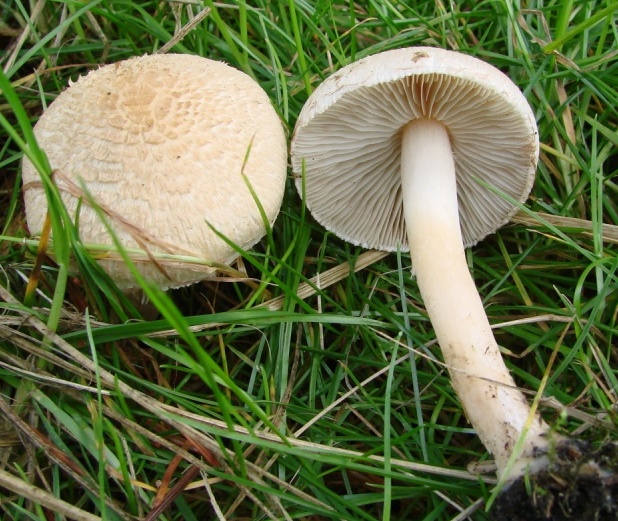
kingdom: Fungi
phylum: Basidiomycota
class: Agaricomycetes
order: Agaricales
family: Inocybaceae
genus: Inocybe
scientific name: Inocybe
